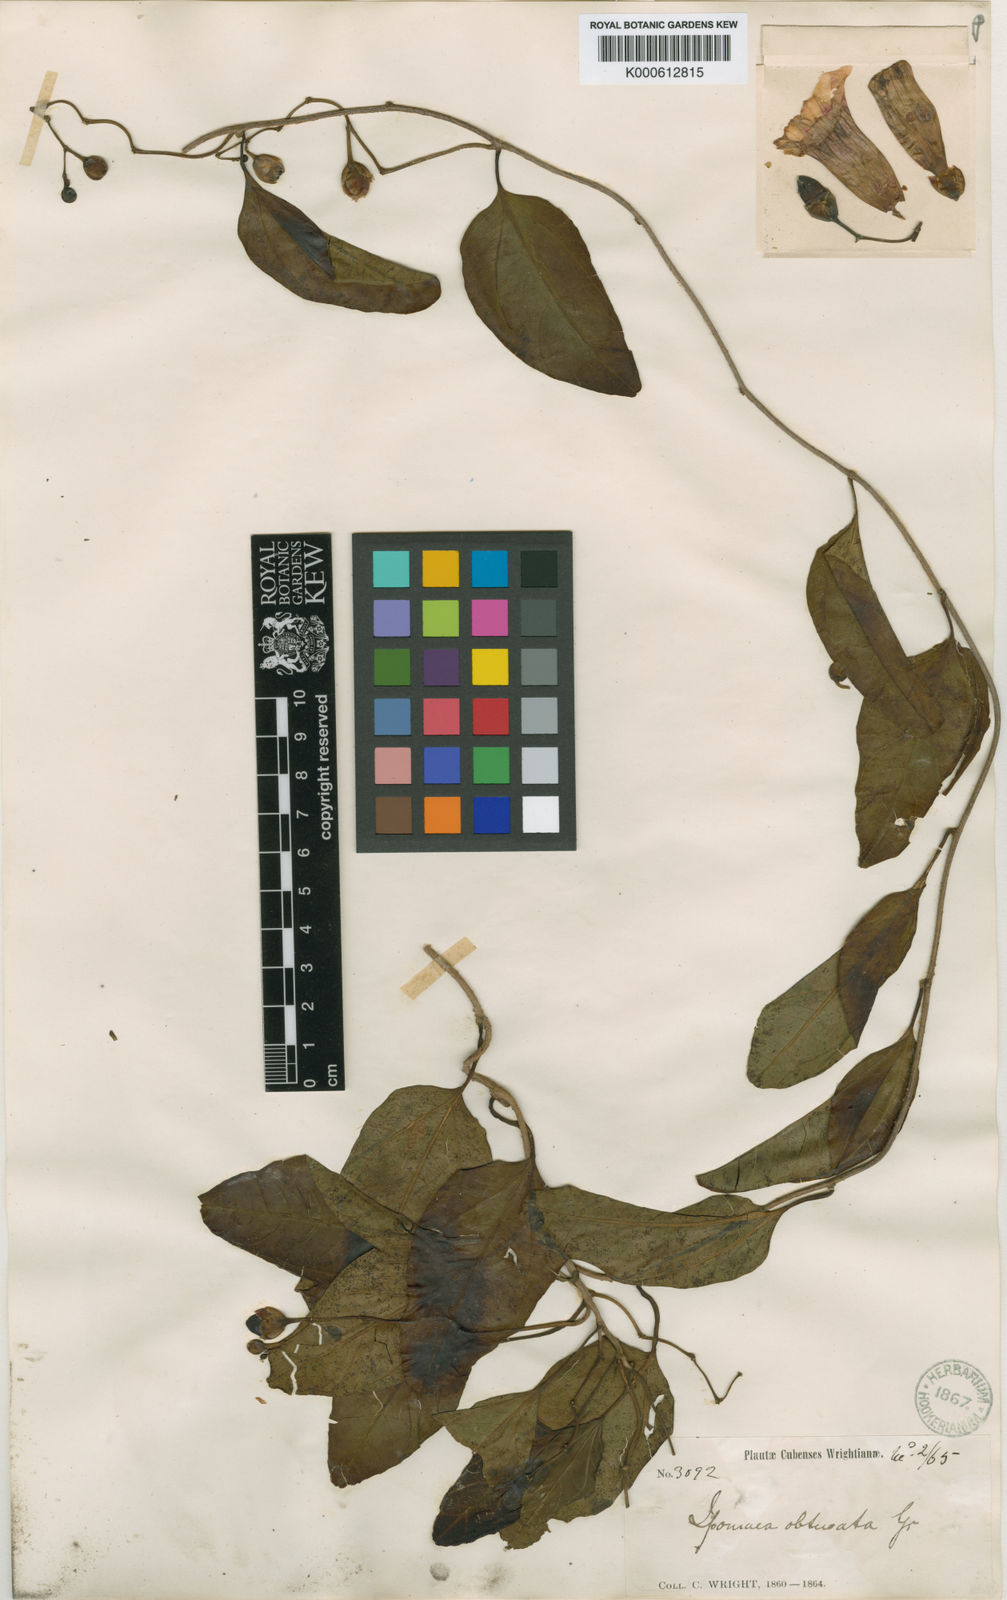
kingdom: Plantae
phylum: Tracheophyta
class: Magnoliopsida
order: Solanales
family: Convolvulaceae
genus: Ipomoea
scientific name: Ipomoea alterniflora
